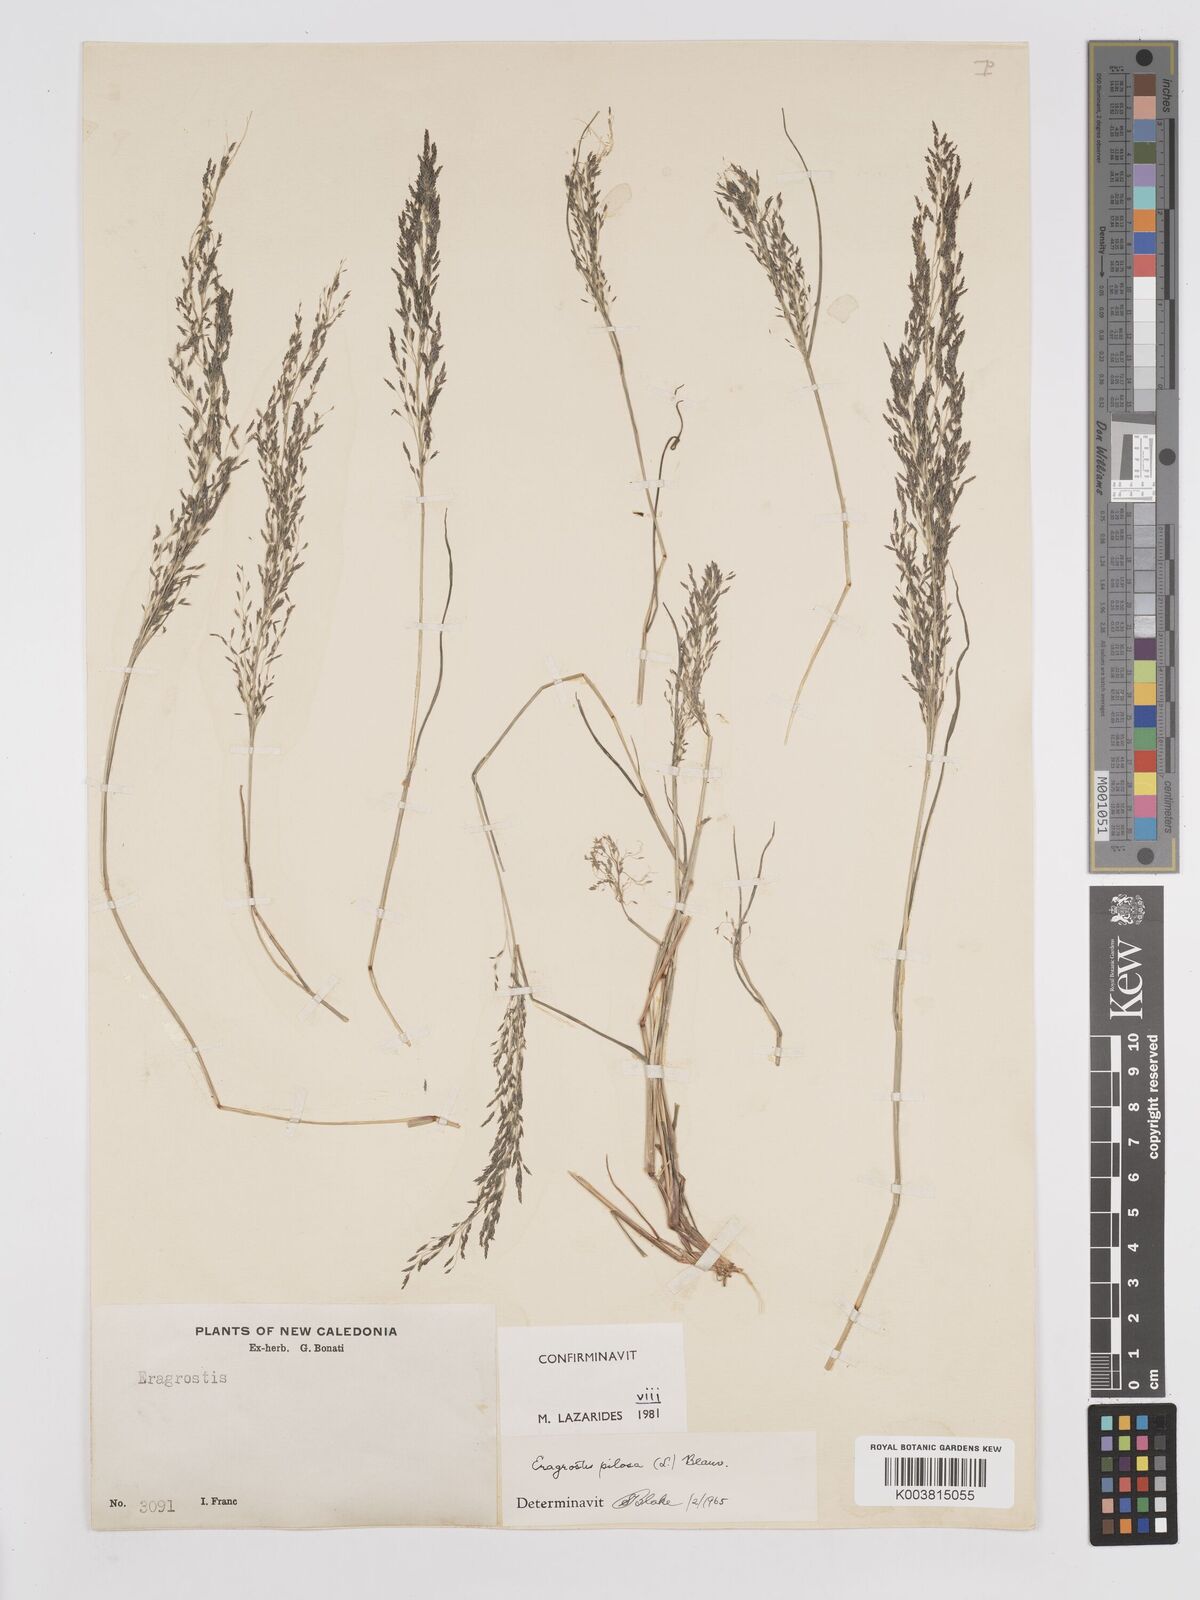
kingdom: Plantae
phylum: Tracheophyta
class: Liliopsida
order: Poales
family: Poaceae
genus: Eragrostis
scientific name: Eragrostis pilosa
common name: Indian lovegrass
